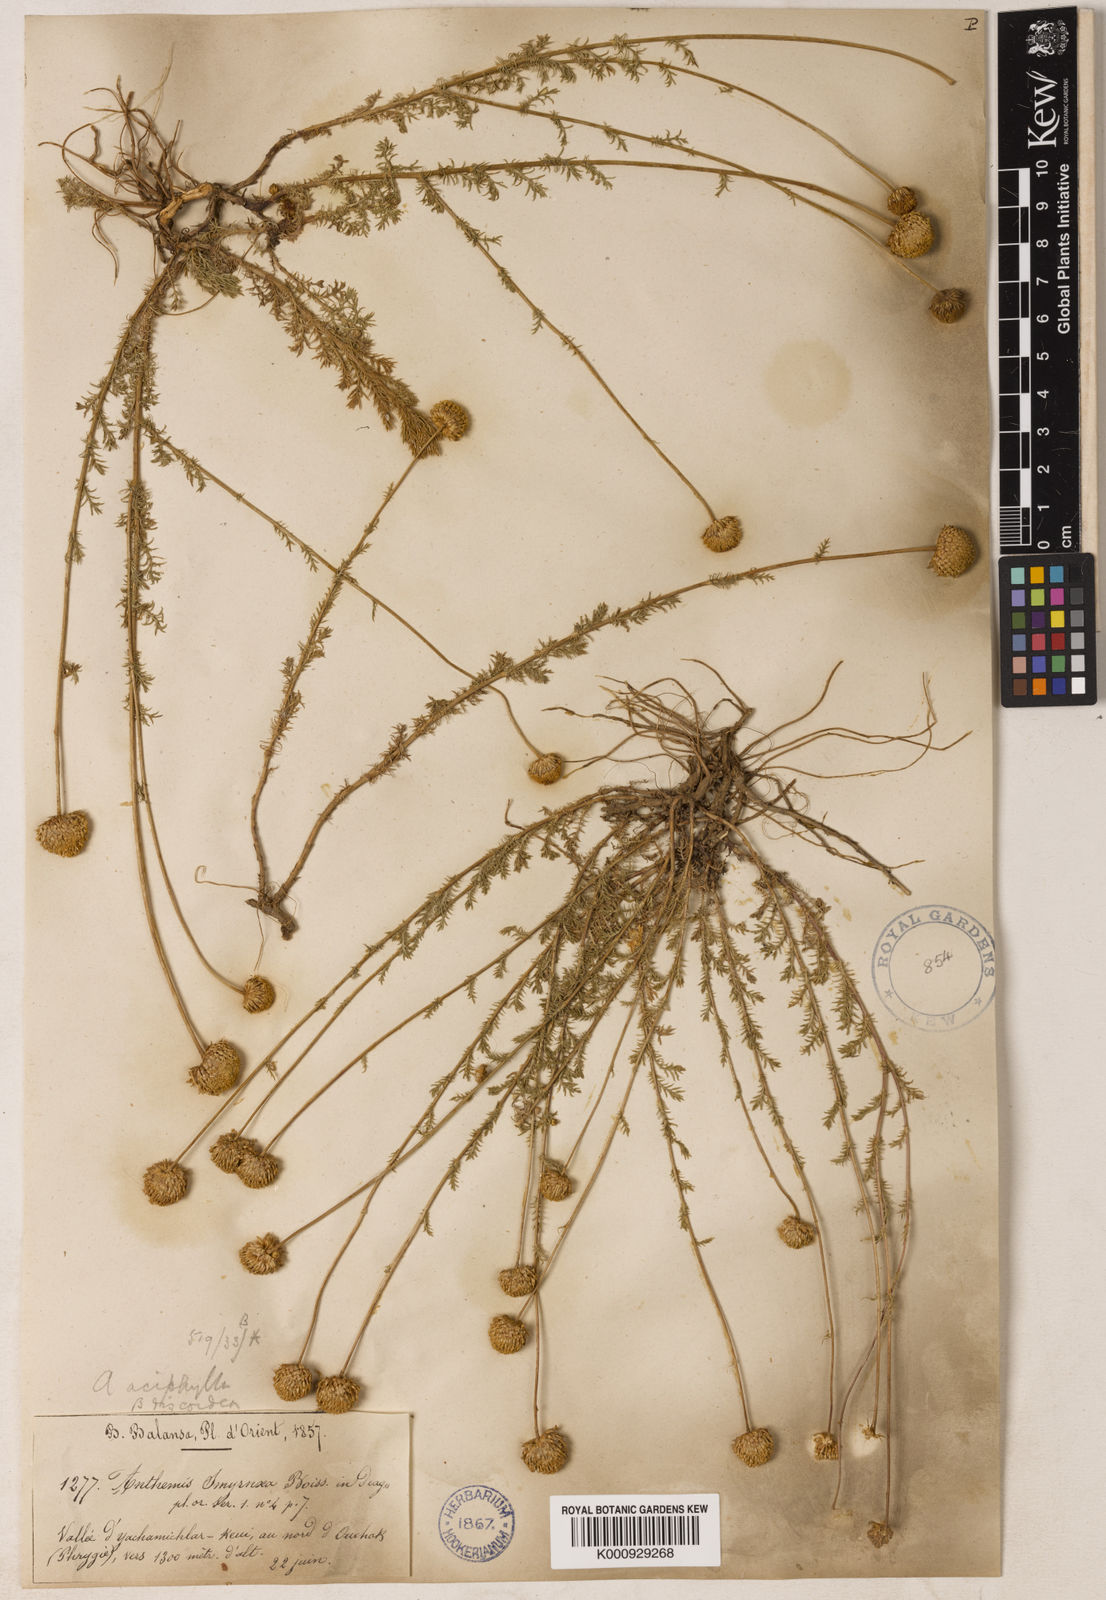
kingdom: Plantae
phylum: Tracheophyta
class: Magnoliopsida
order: Asterales
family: Asteraceae
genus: Anthemis
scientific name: Anthemis aciphylla
